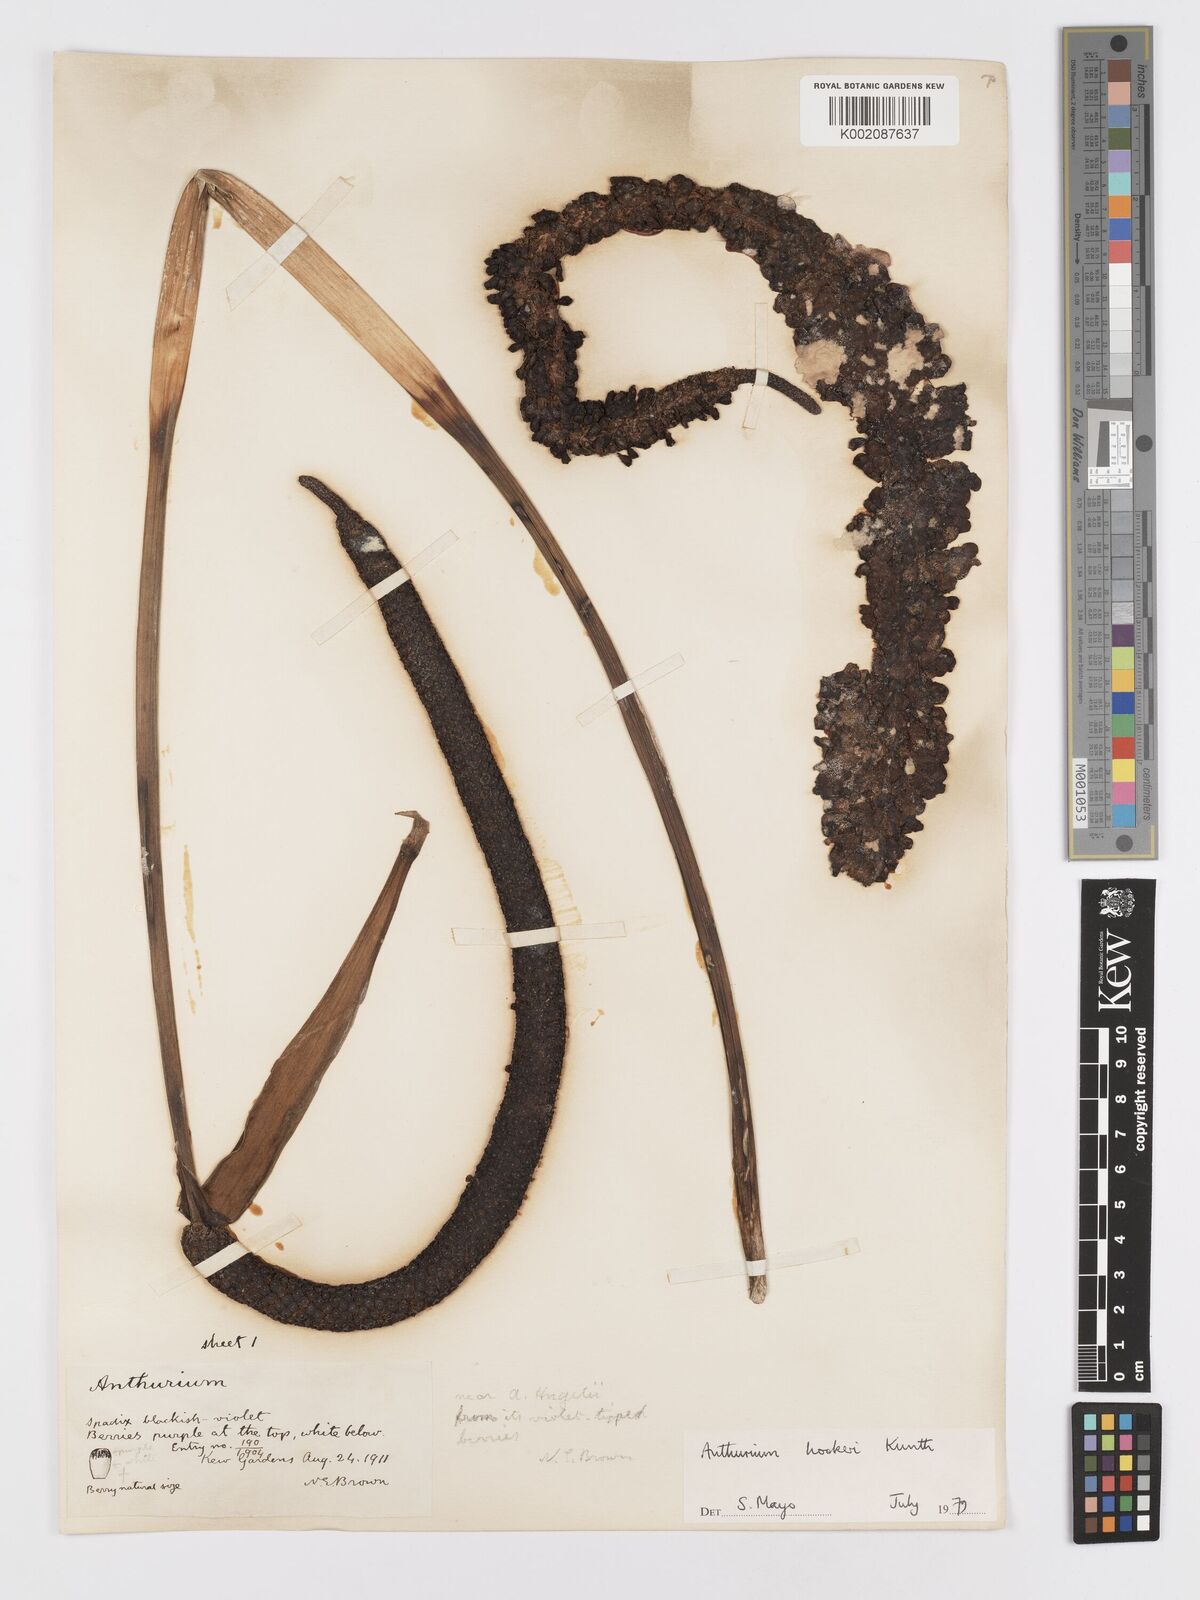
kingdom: Plantae
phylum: Tracheophyta
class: Liliopsida
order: Alismatales
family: Araceae
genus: Anthurium
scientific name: Anthurium hookeri
